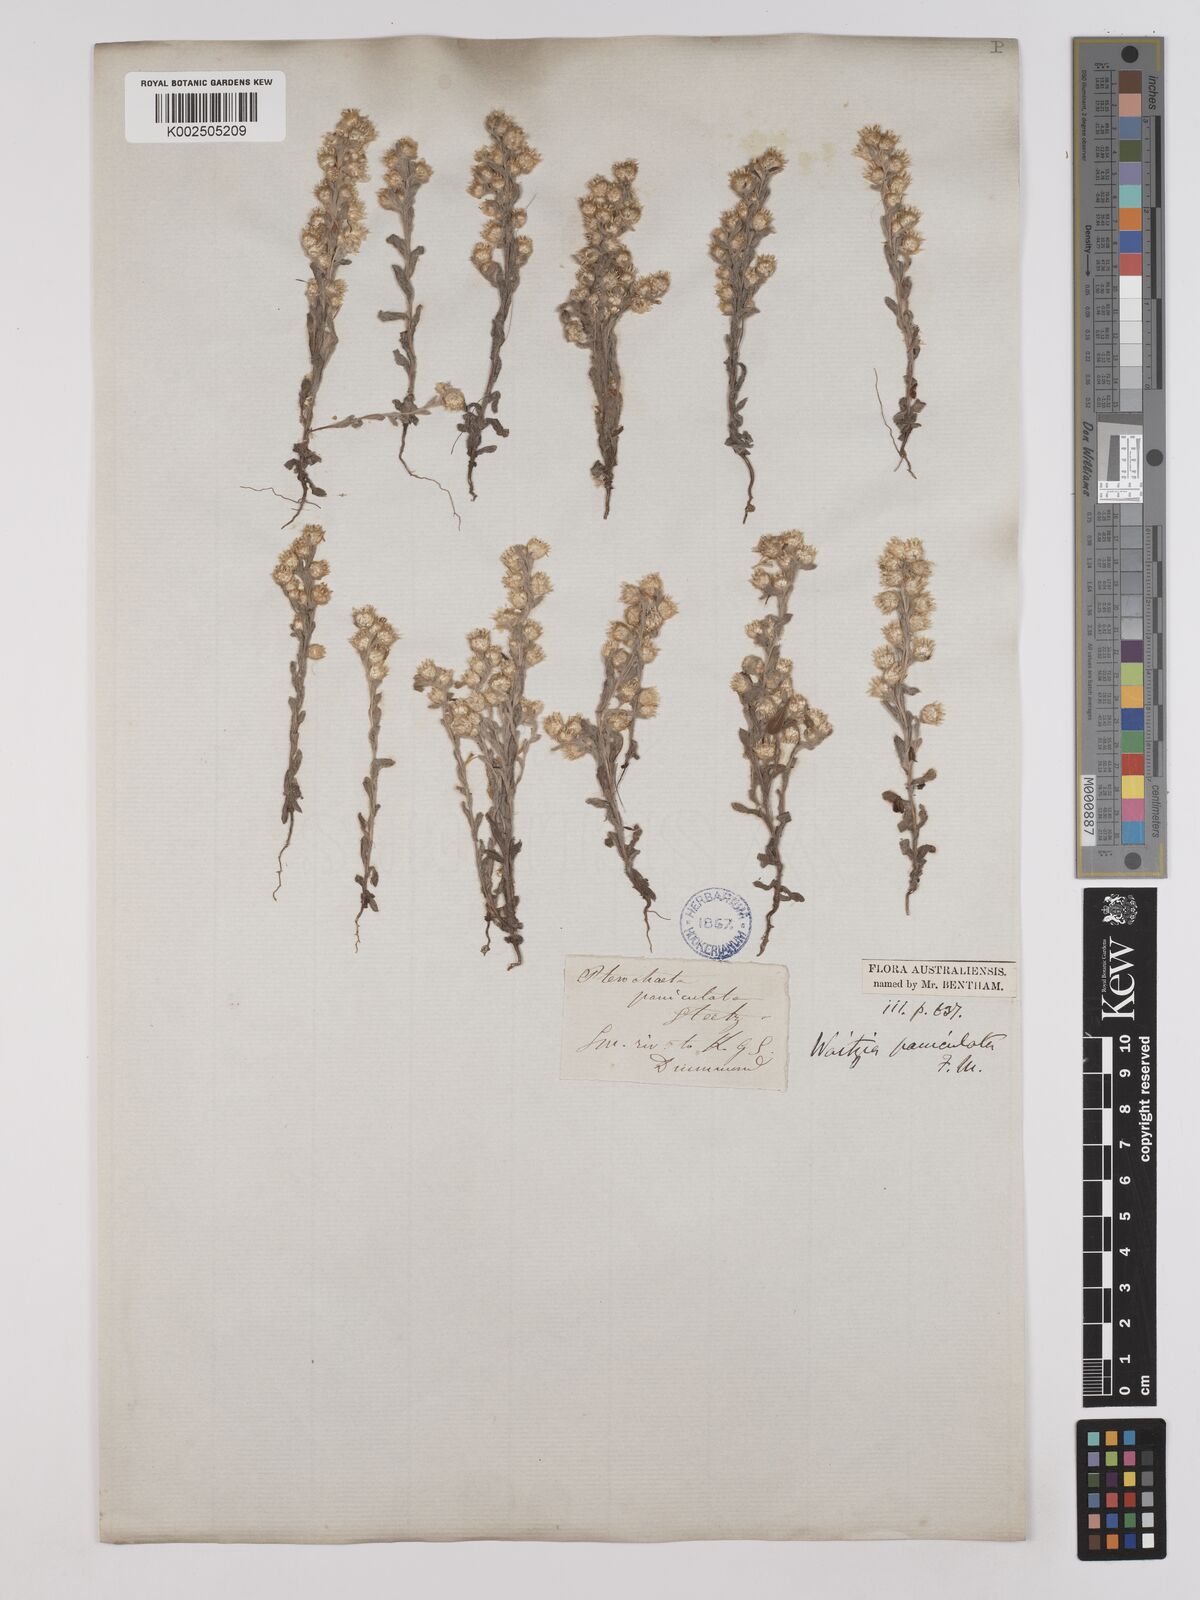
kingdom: Plantae
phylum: Tracheophyta
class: Magnoliopsida
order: Asterales
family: Asteraceae
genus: Pterochaeta
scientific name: Pterochaeta paniculata
